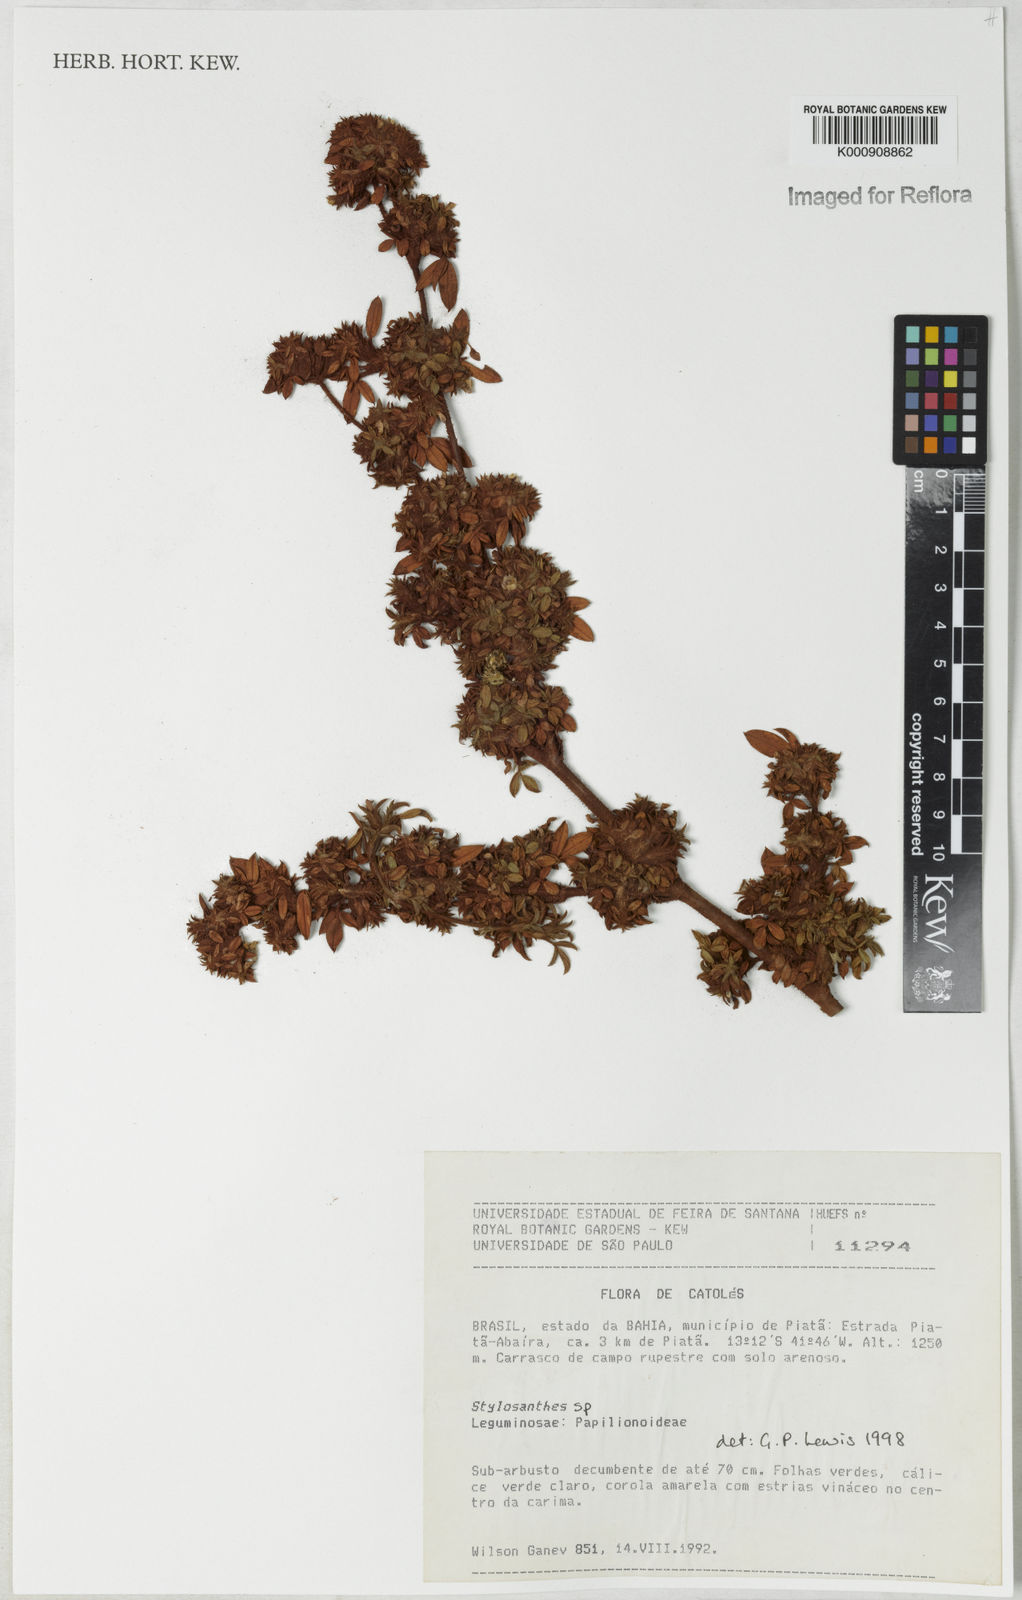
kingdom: Plantae
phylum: Tracheophyta
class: Magnoliopsida
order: Fabales
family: Fabaceae
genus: Stylosanthes
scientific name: Stylosanthes
